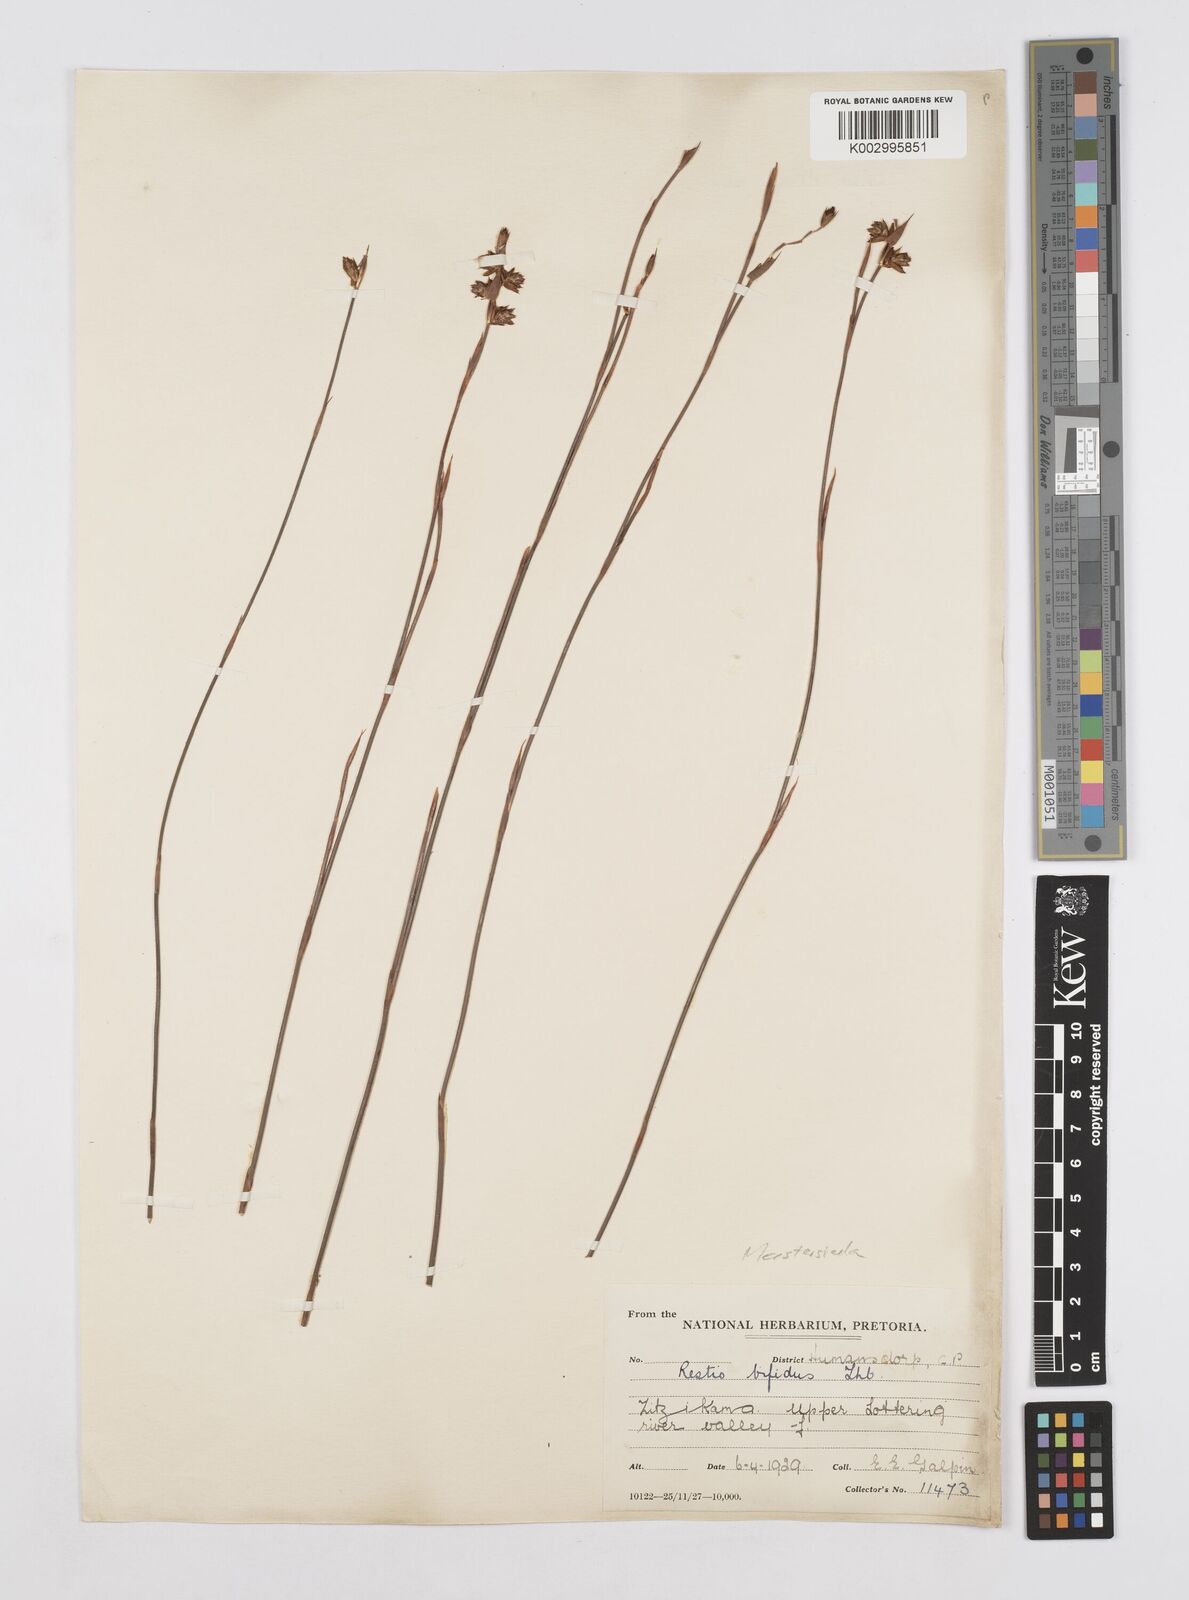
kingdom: Plantae
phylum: Tracheophyta
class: Liliopsida
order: Poales
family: Restionaceae
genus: Mastersiella
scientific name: Mastersiella purpurea
